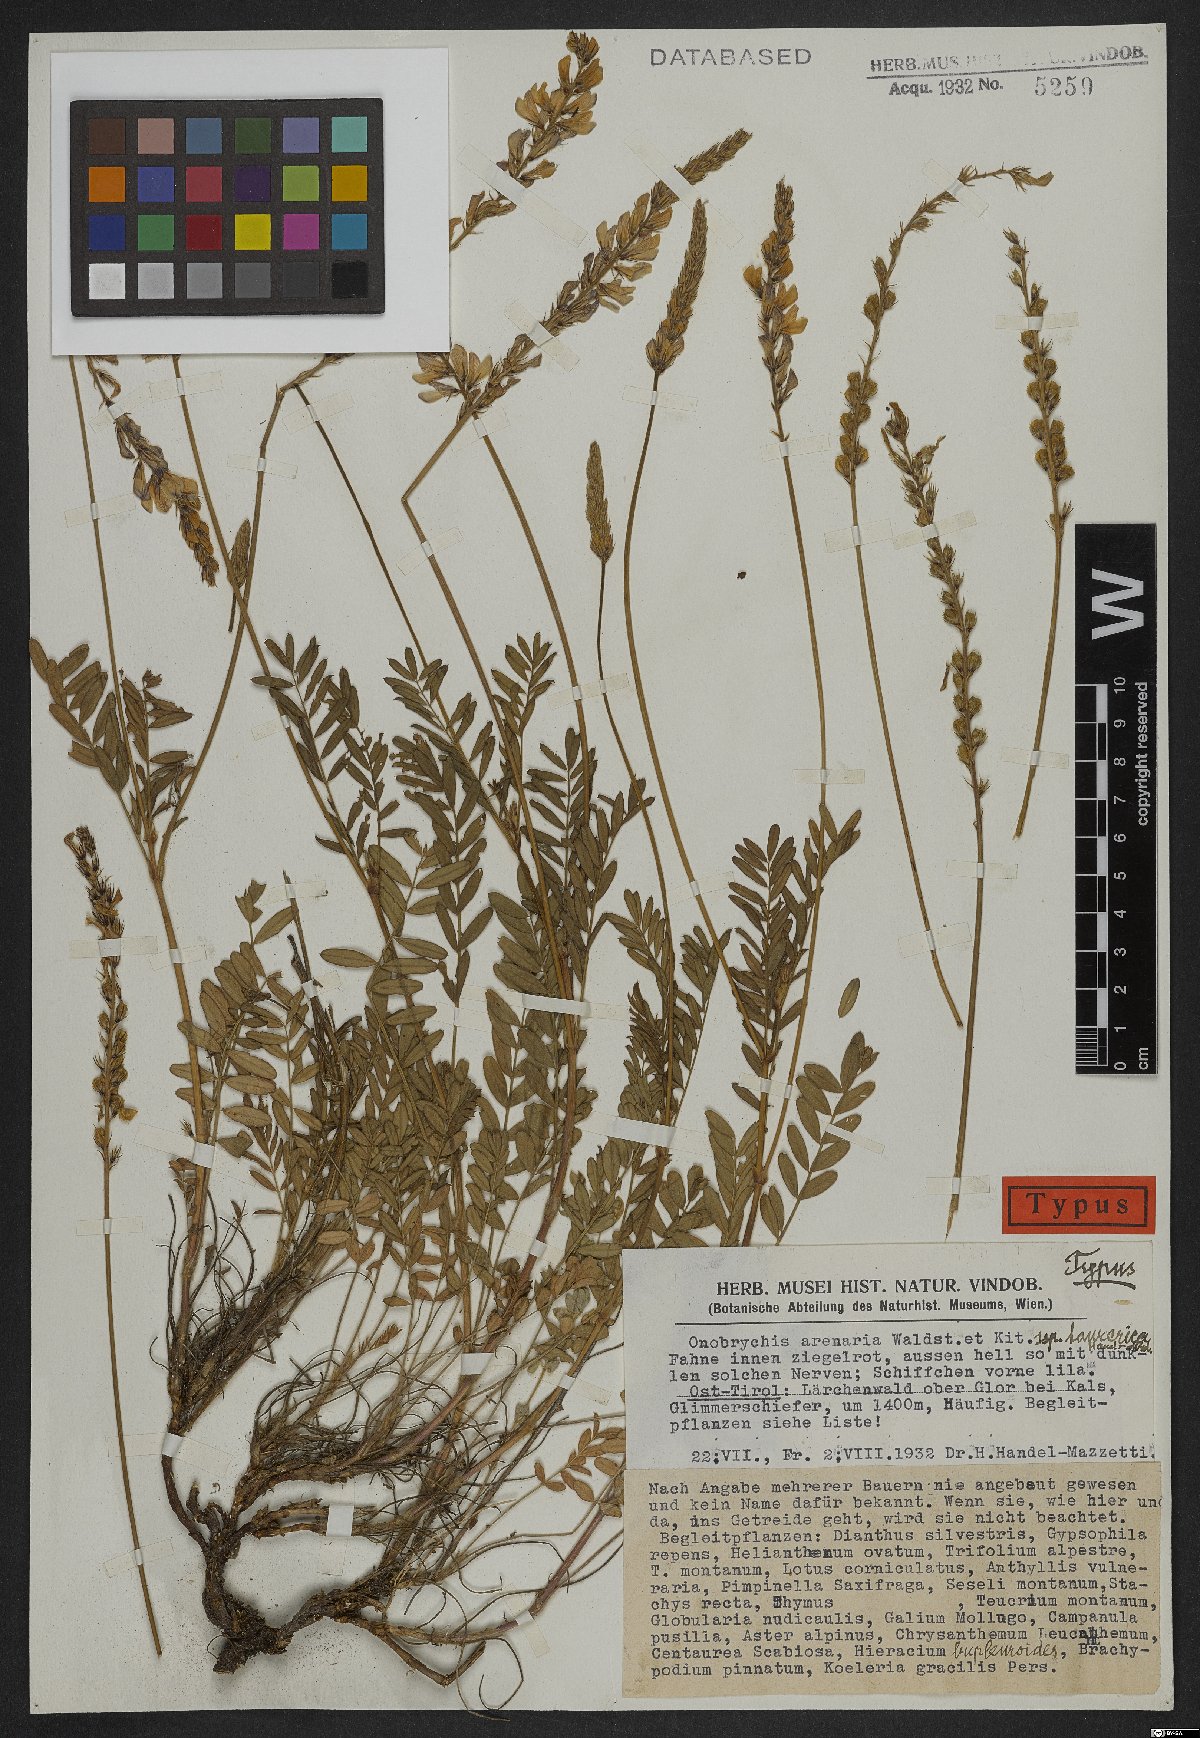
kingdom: Plantae
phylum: Tracheophyta
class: Magnoliopsida
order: Fabales
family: Fabaceae
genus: Onobrychis
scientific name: Onobrychis arenaria
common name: Sand esparcet
